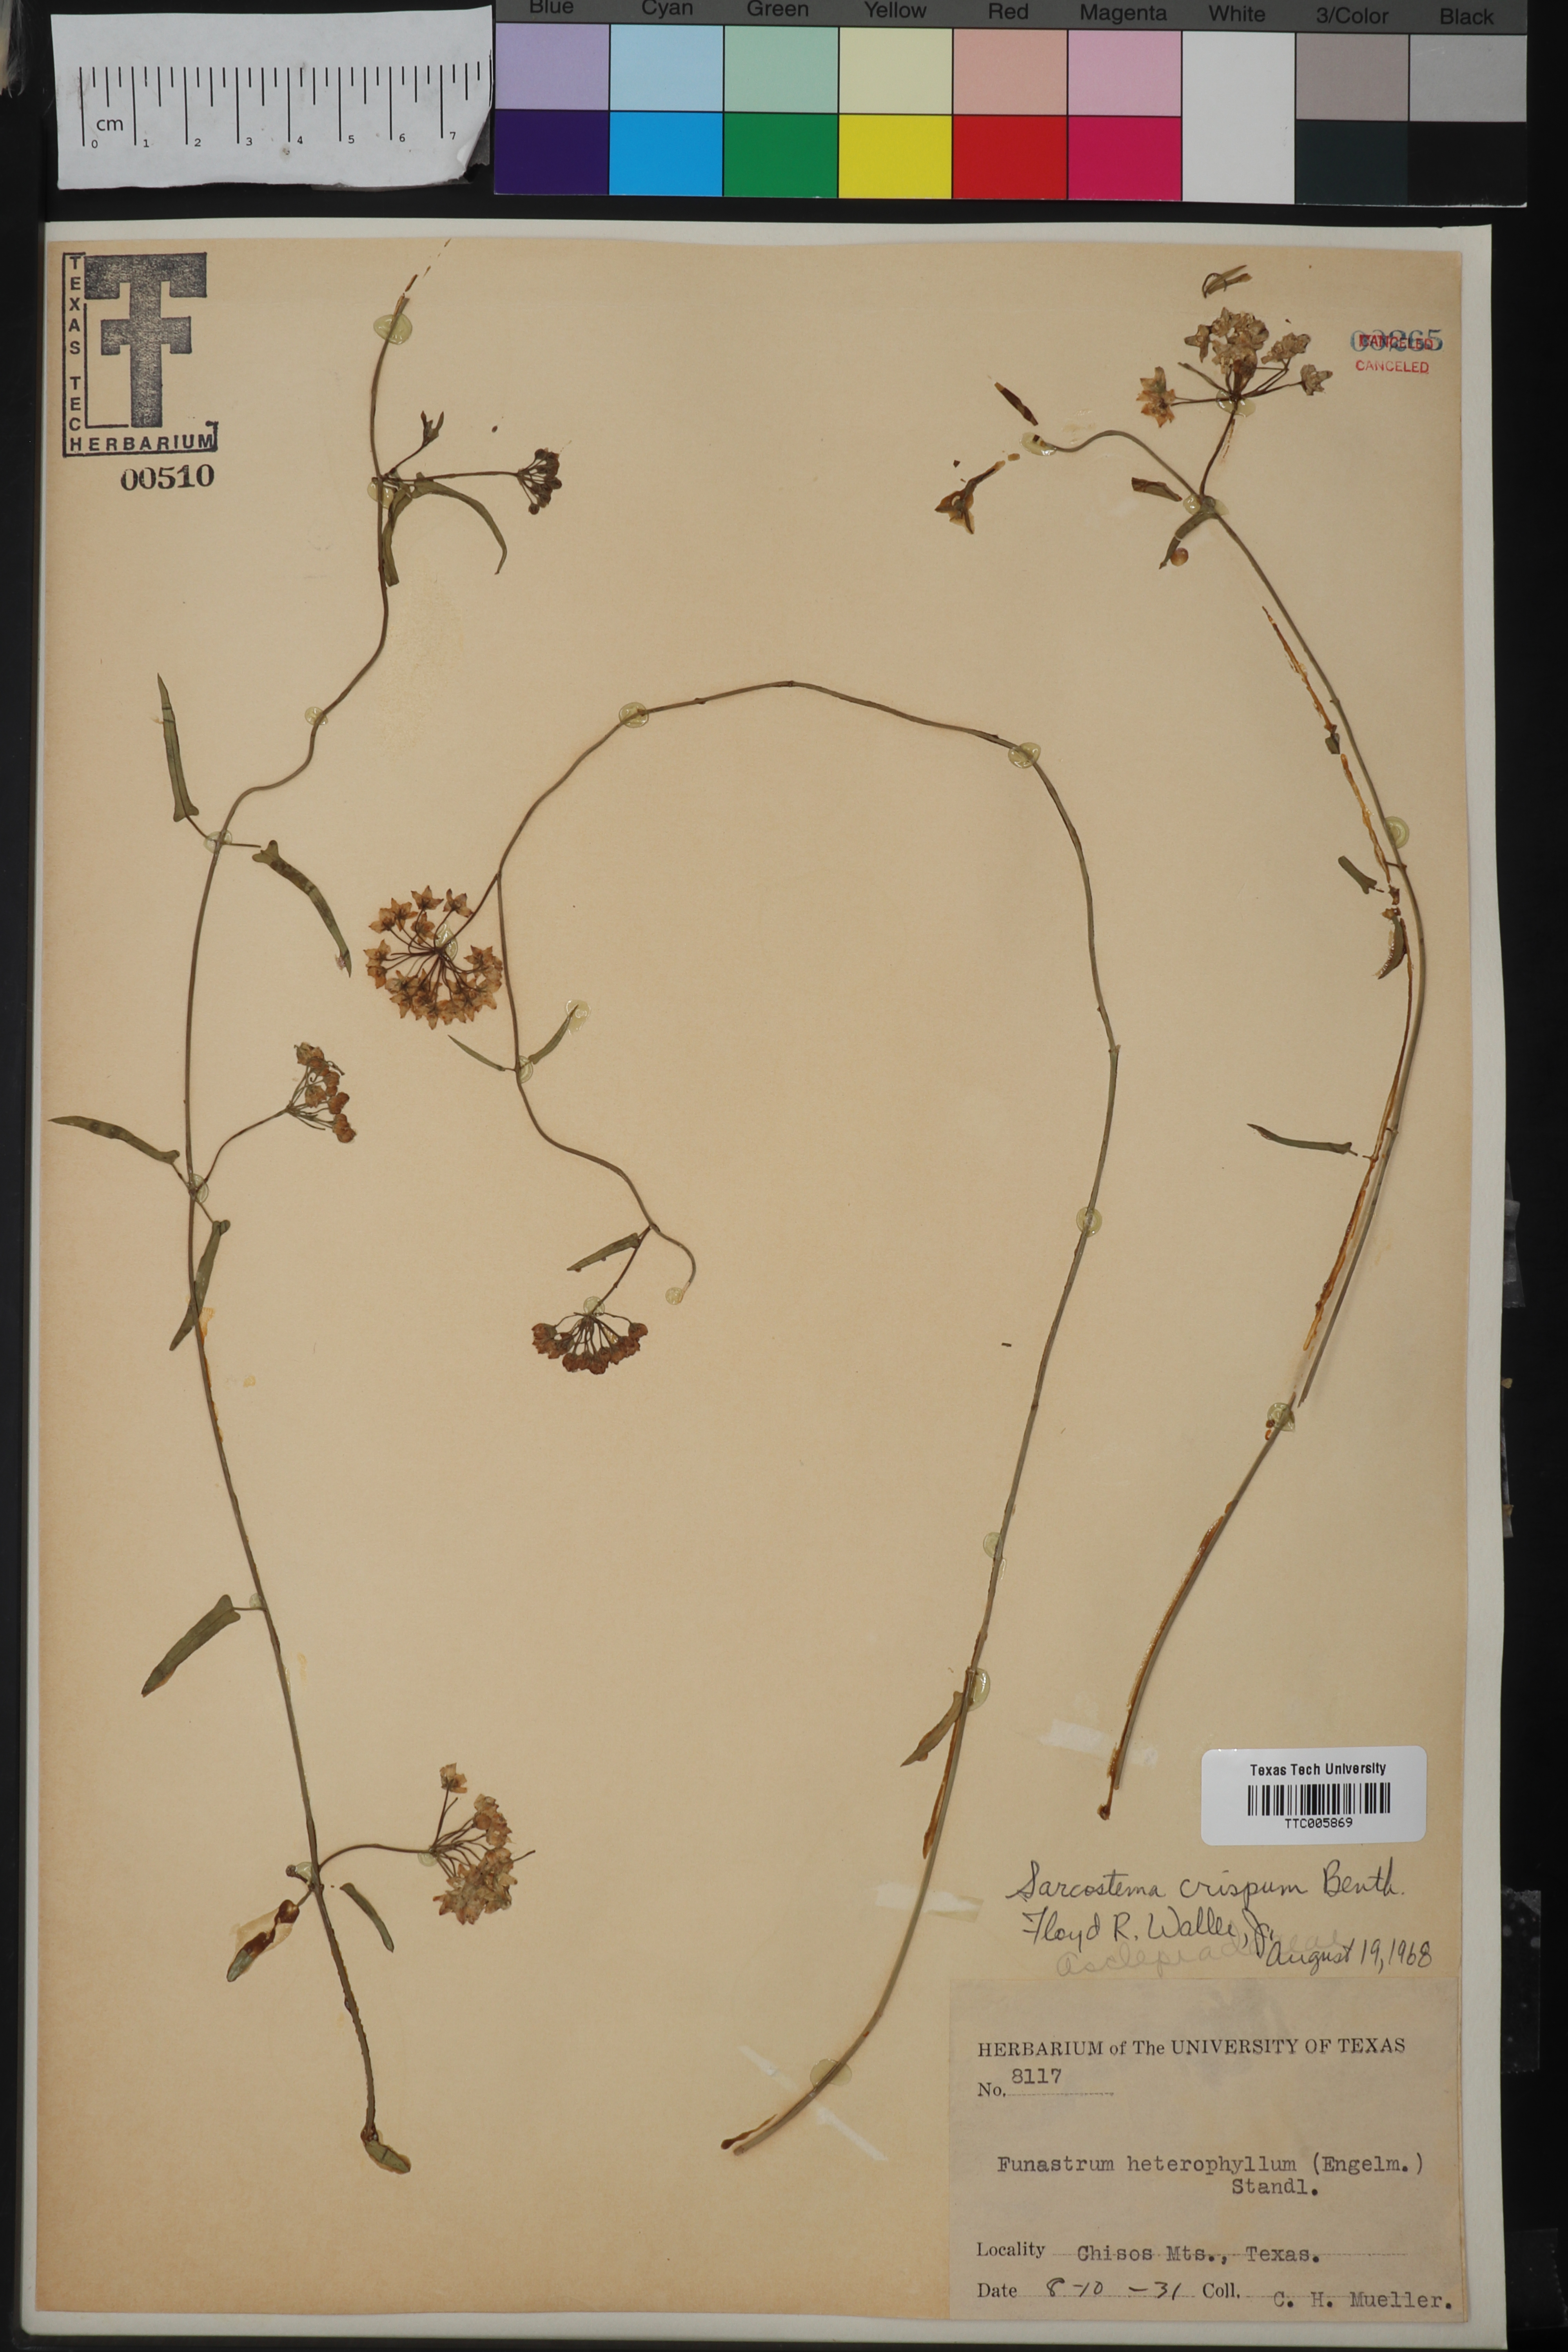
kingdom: Plantae
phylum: Tracheophyta
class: Magnoliopsida
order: Gentianales
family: Apocynaceae
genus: Funastrum
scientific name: Funastrum crispum
